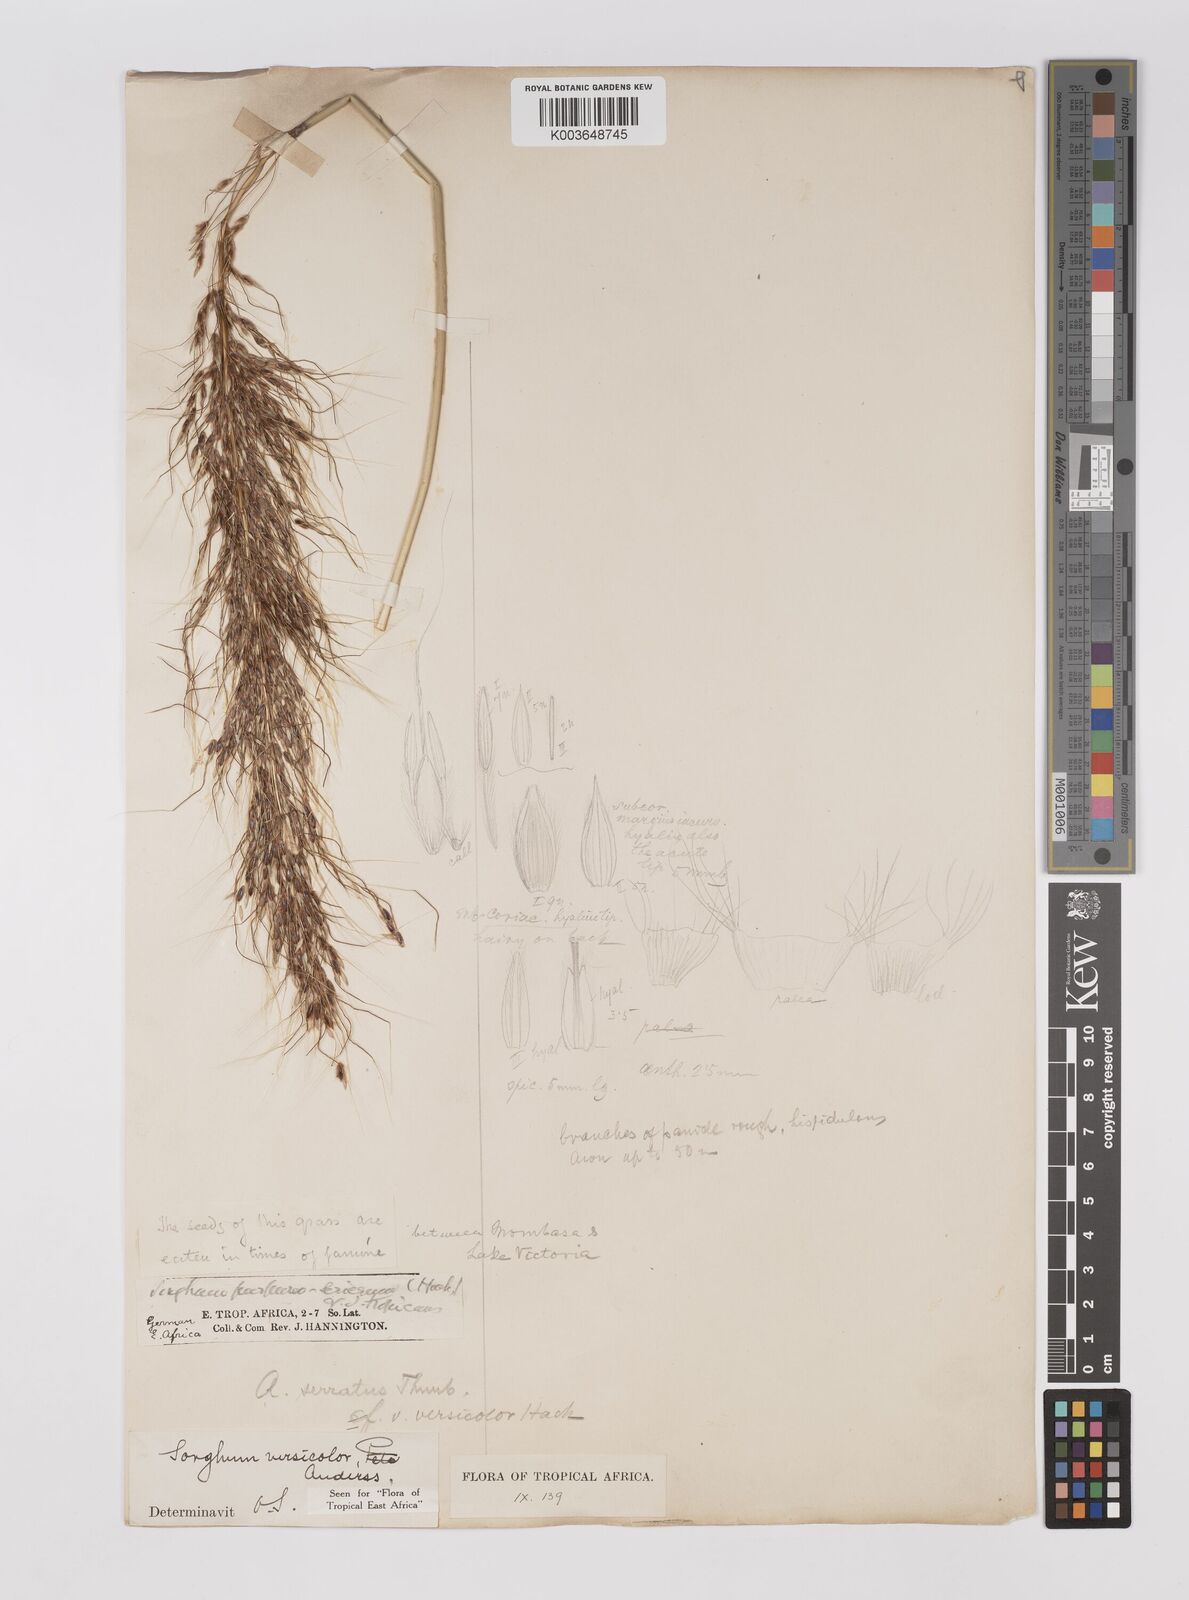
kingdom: Plantae
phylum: Tracheophyta
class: Liliopsida
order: Poales
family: Poaceae
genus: Sarga
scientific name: Sarga versicolor
